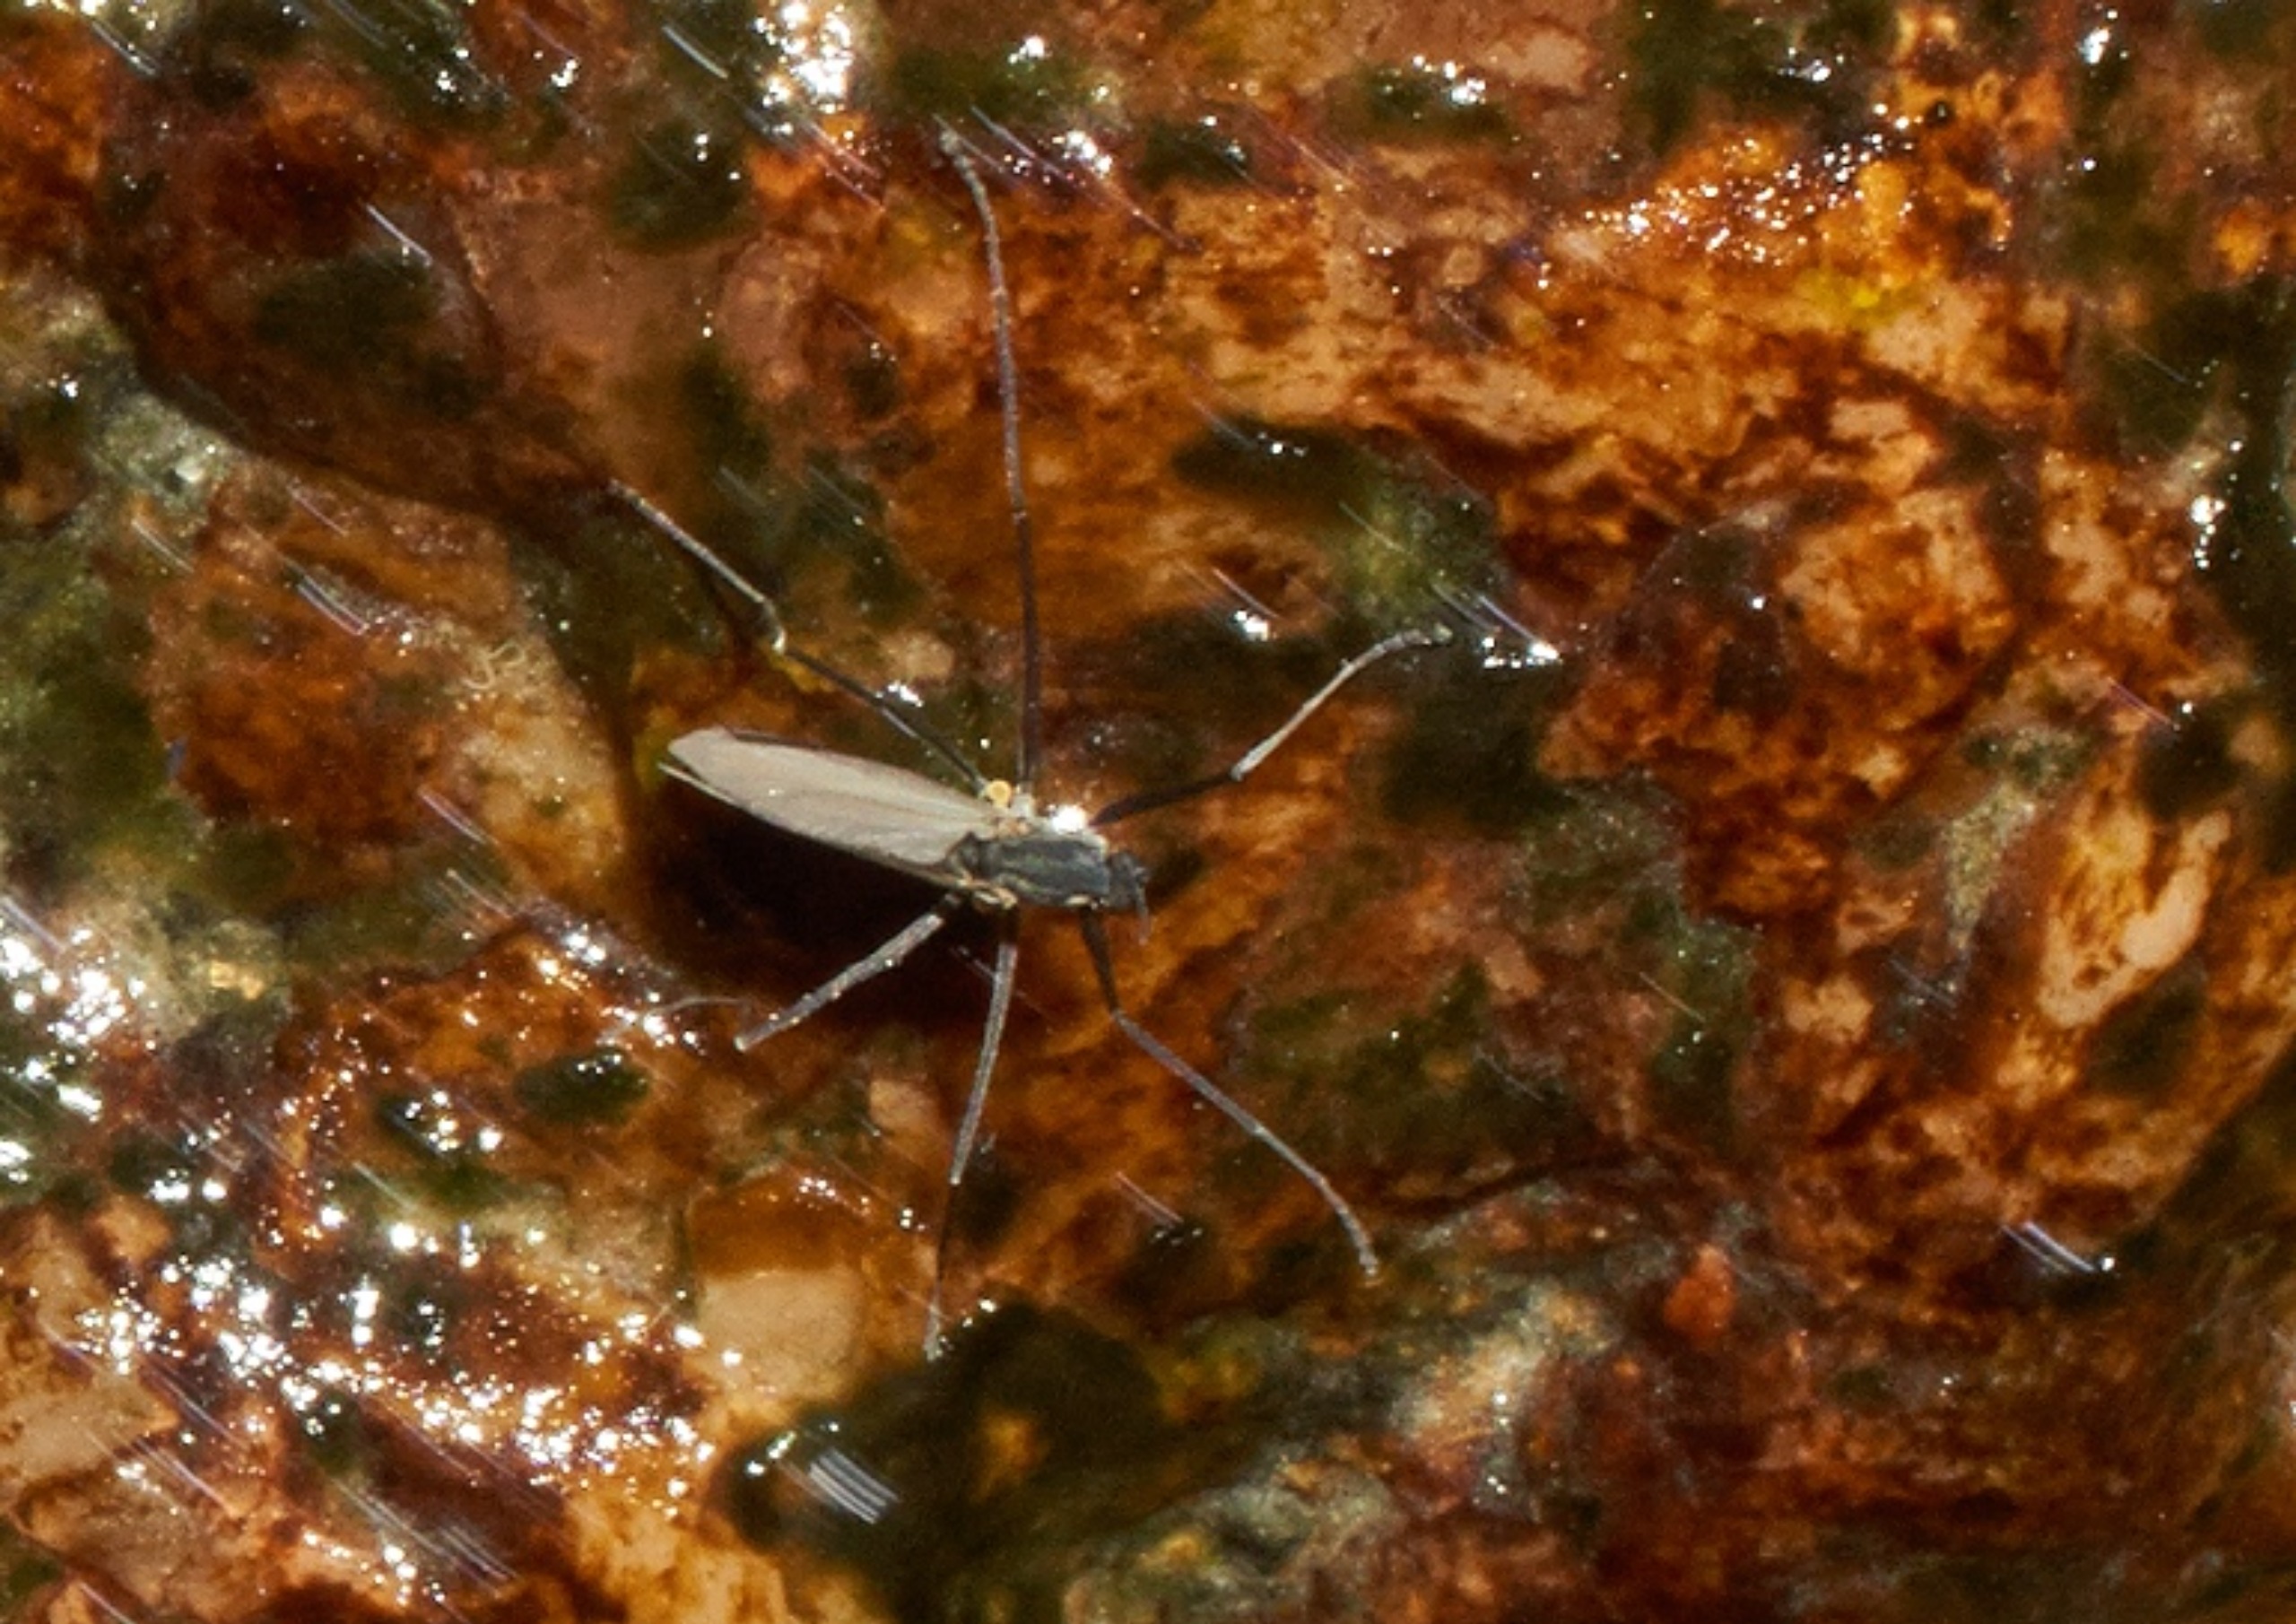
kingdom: Animalia
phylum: Arthropoda
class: Insecta
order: Diptera
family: Chironomidae
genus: Telmatogeton
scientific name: Telmatogeton japonicus
